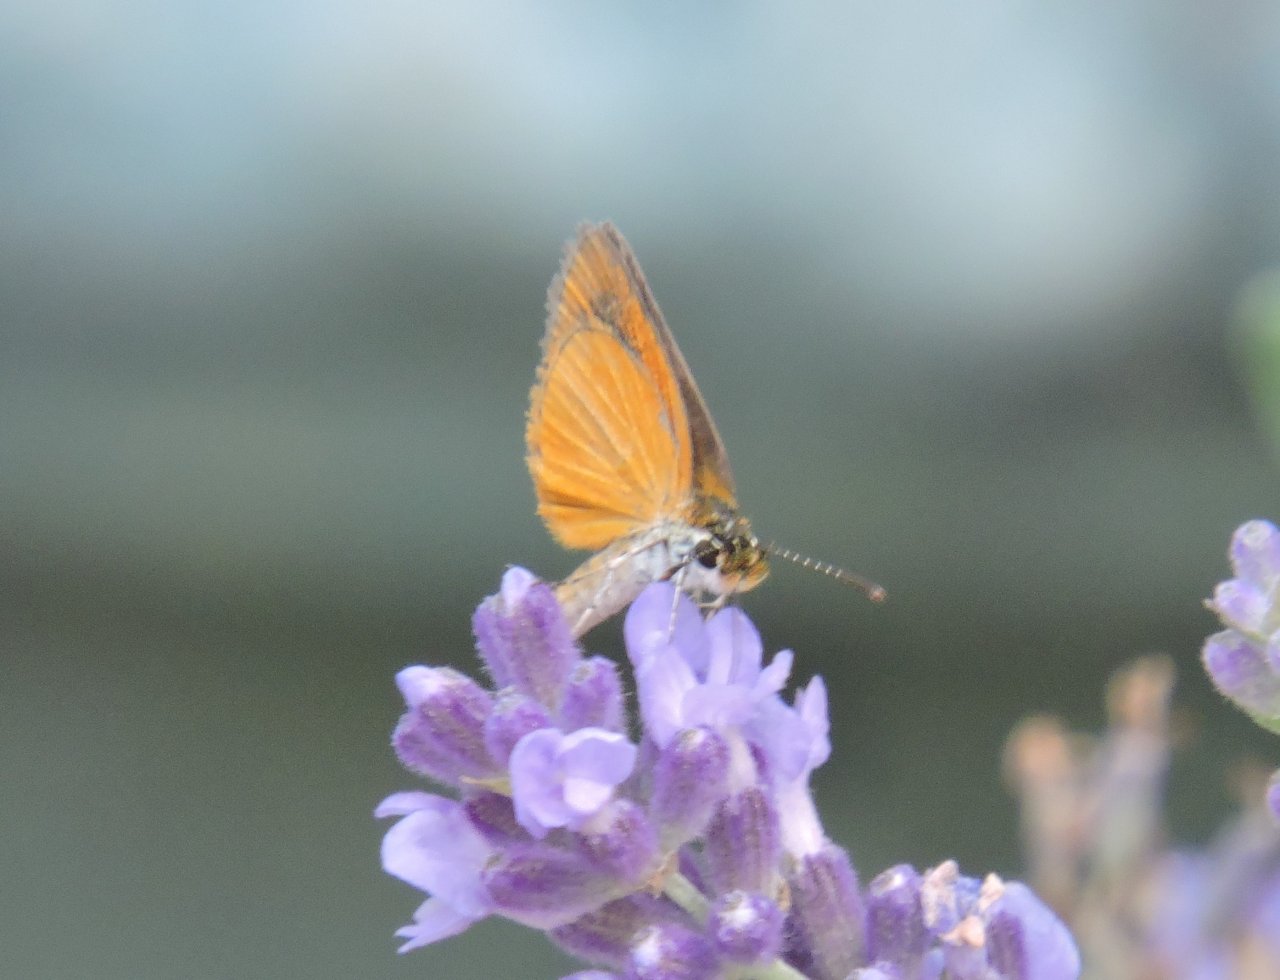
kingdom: Animalia
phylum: Arthropoda
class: Insecta
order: Lepidoptera
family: Hesperiidae
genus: Ancyloxypha
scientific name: Ancyloxypha numitor
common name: Least Skipper
